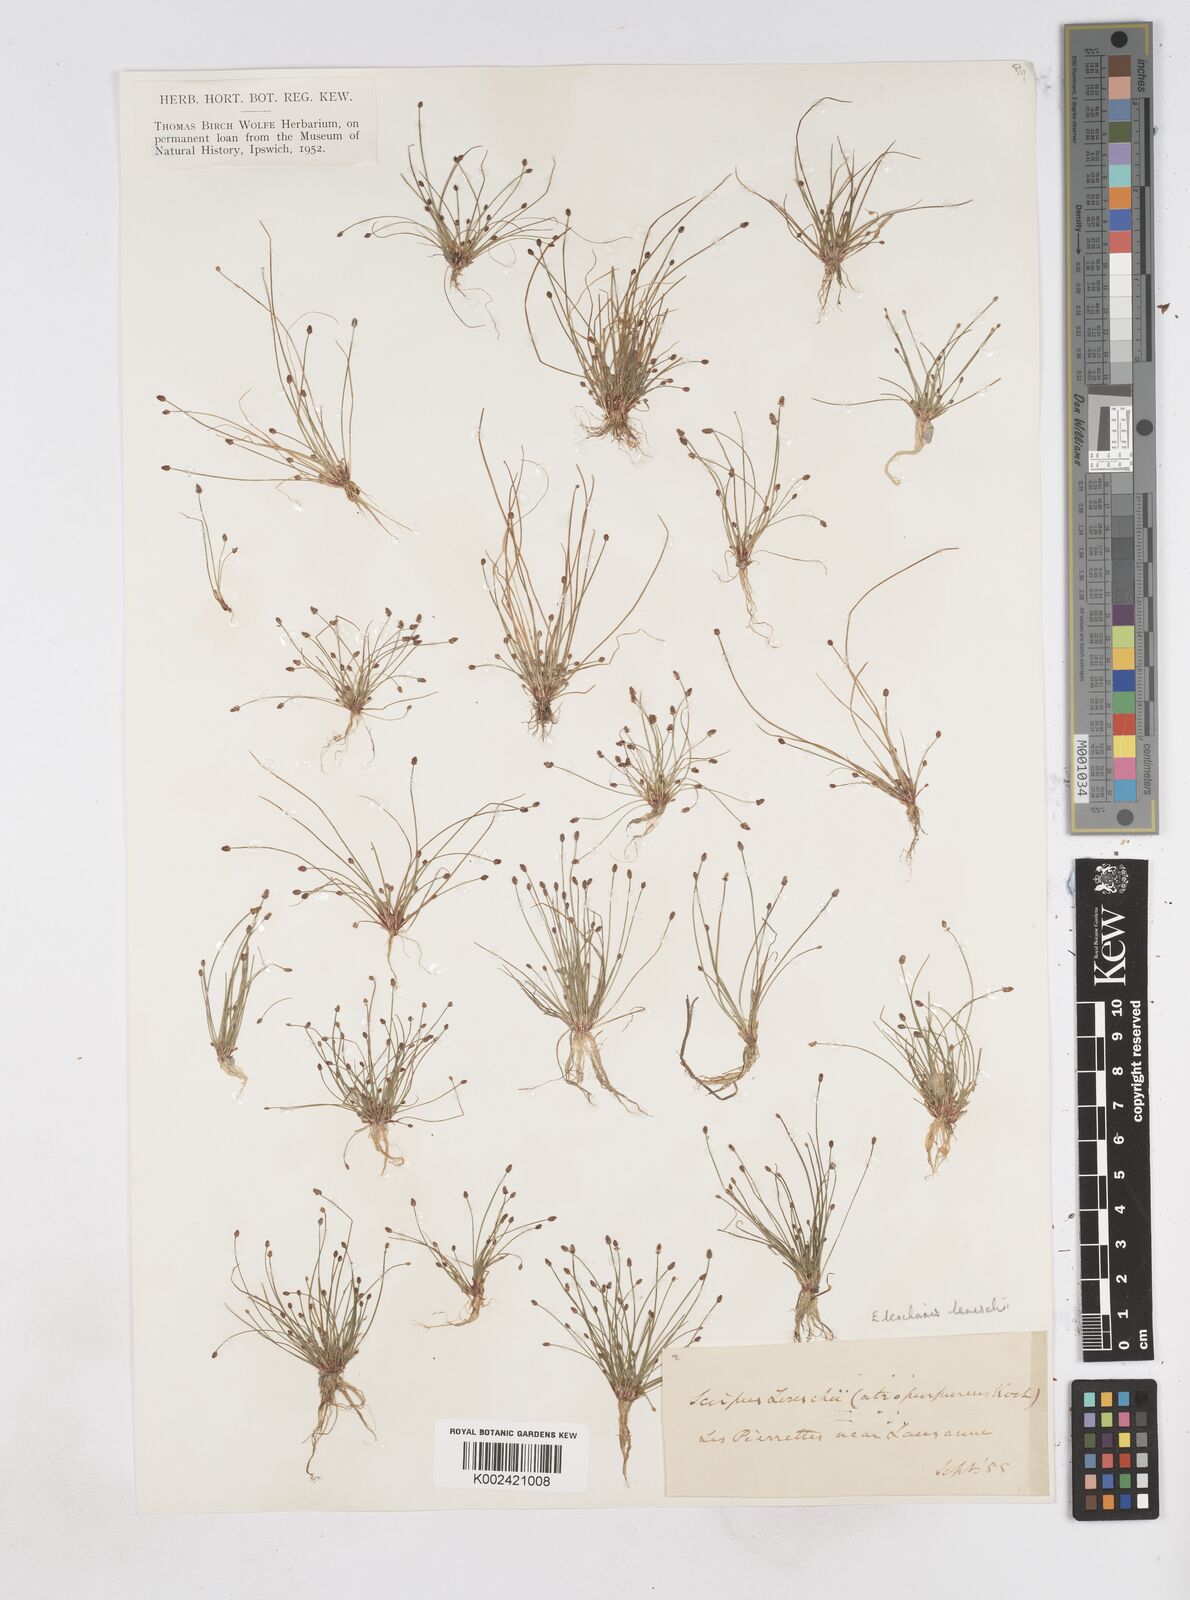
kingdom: Plantae
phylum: Tracheophyta
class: Liliopsida
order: Poales
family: Cyperaceae
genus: Eleocharis
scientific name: Eleocharis atropurpurea
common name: Purple spikerush
